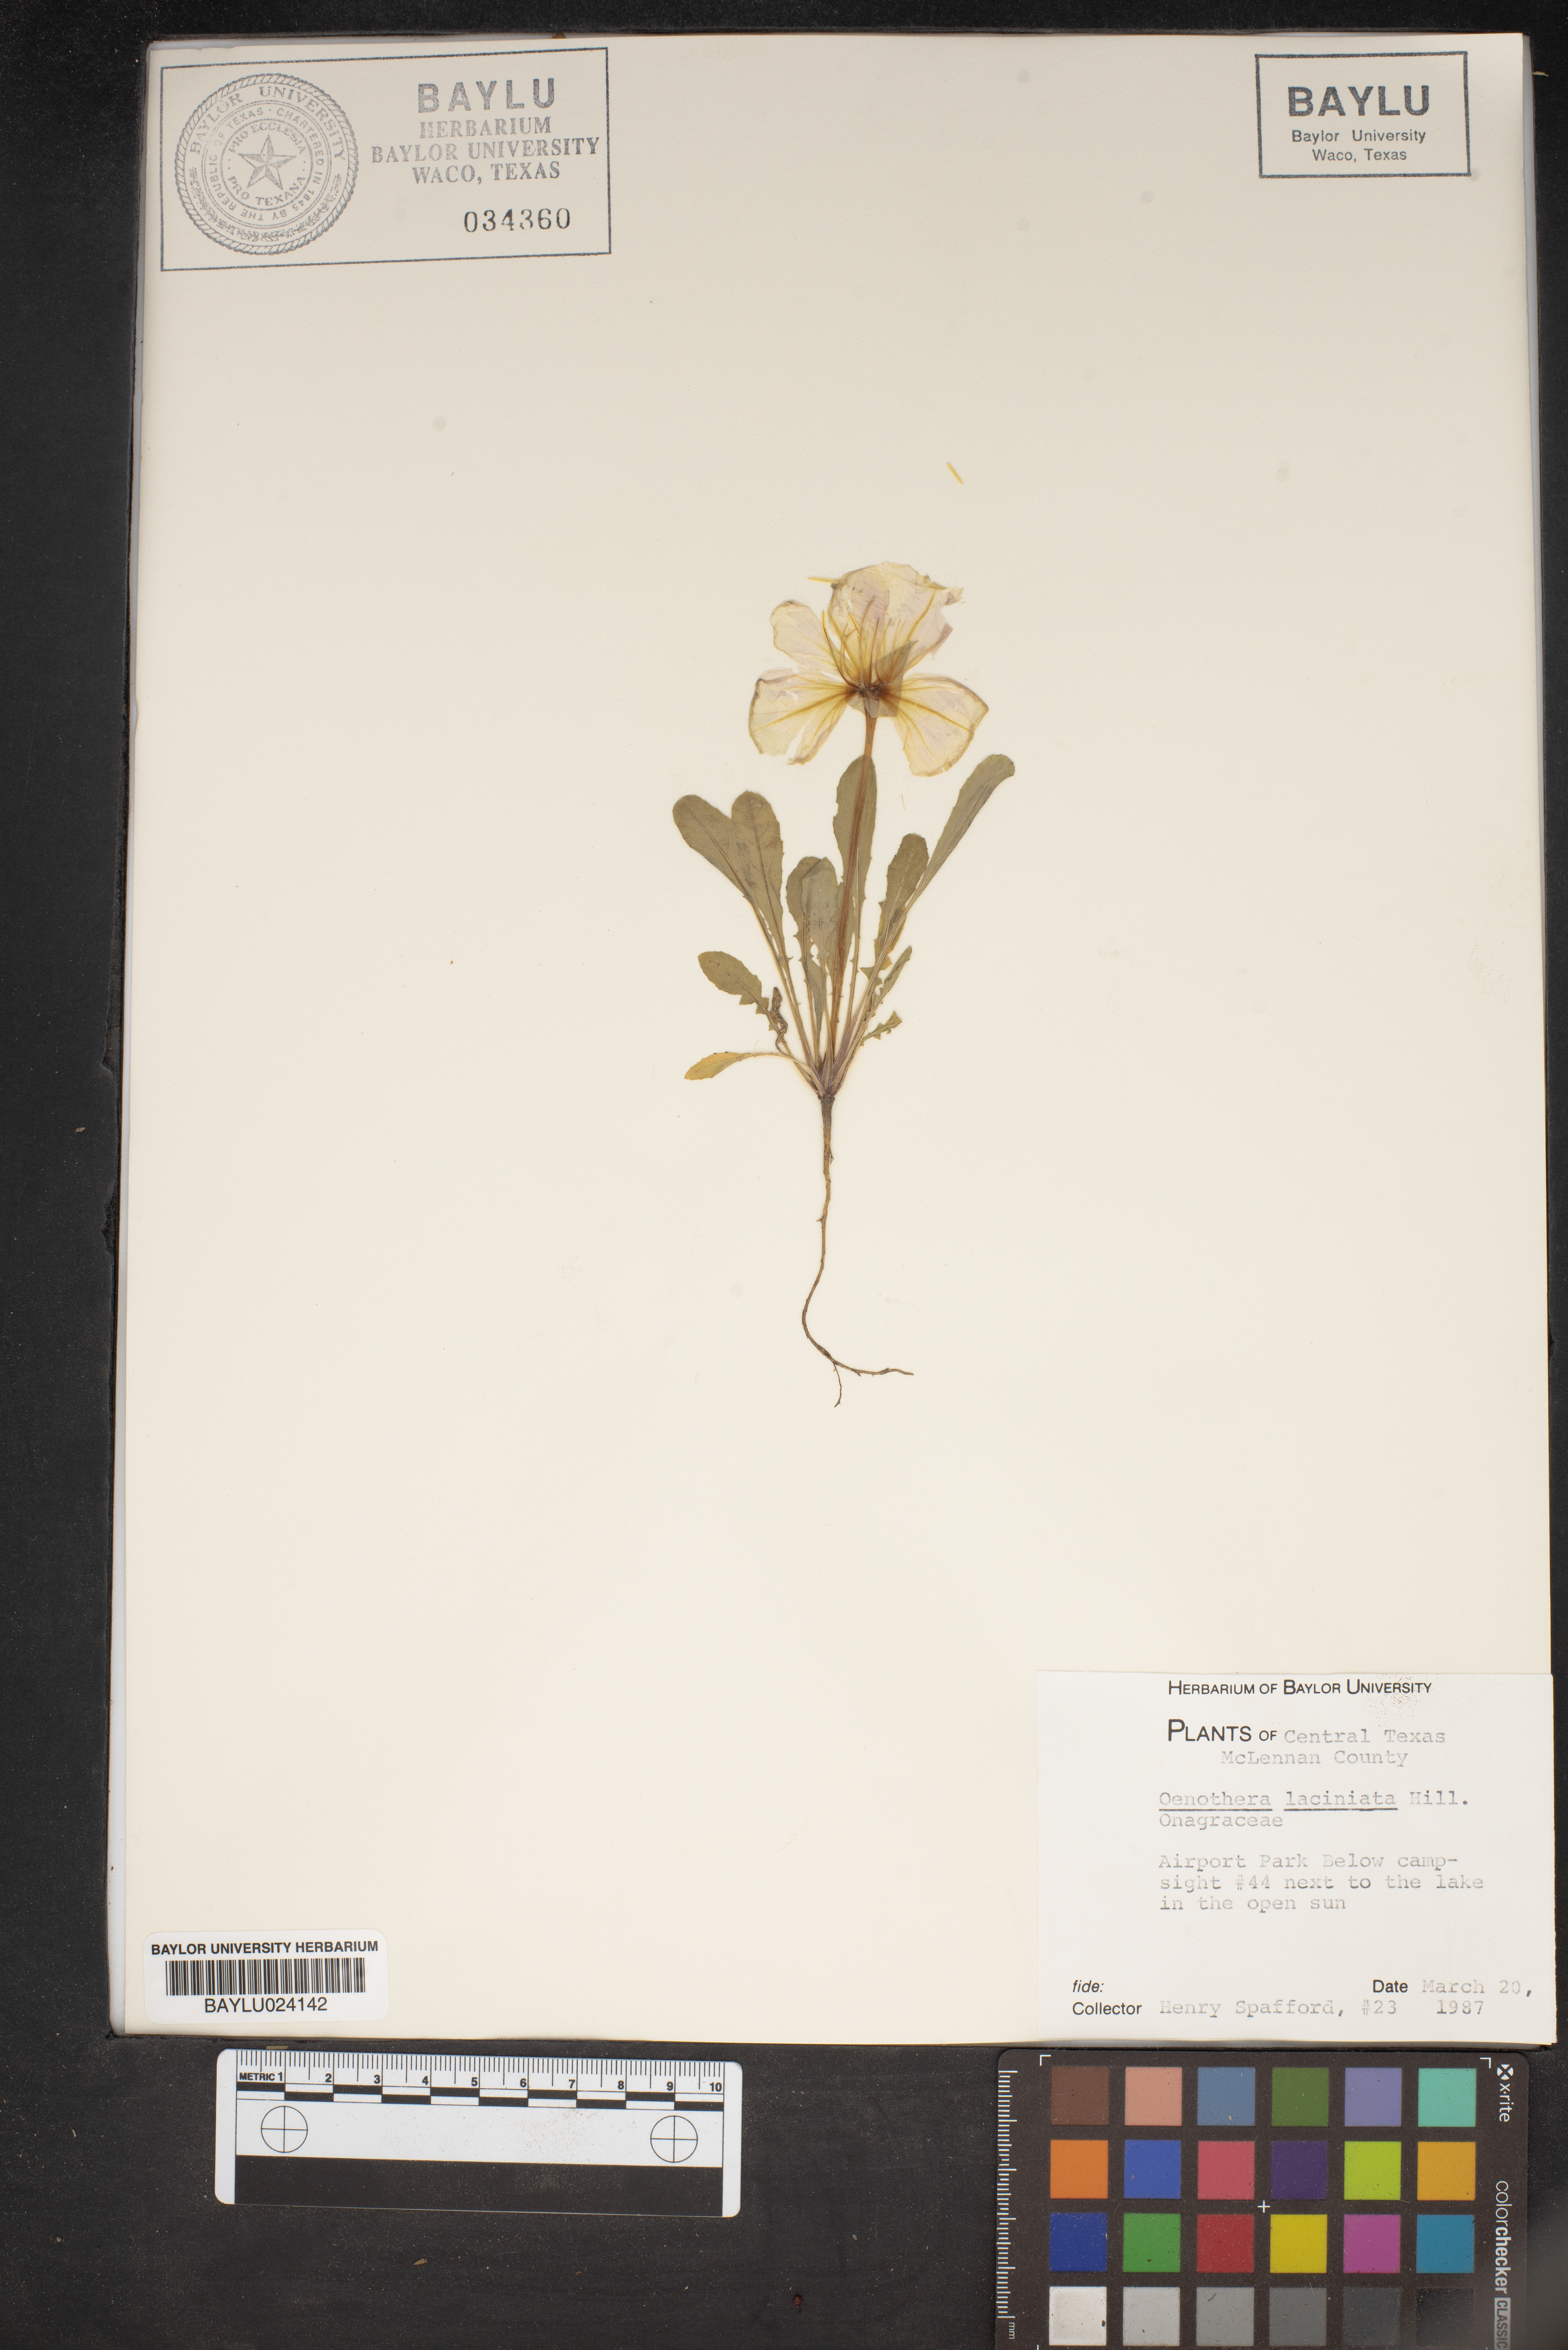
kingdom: Plantae
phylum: Tracheophyta
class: Magnoliopsida
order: Myrtales
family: Onagraceae
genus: Oenothera
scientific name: Oenothera laciniata
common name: Cut-leaved evening-primrose
